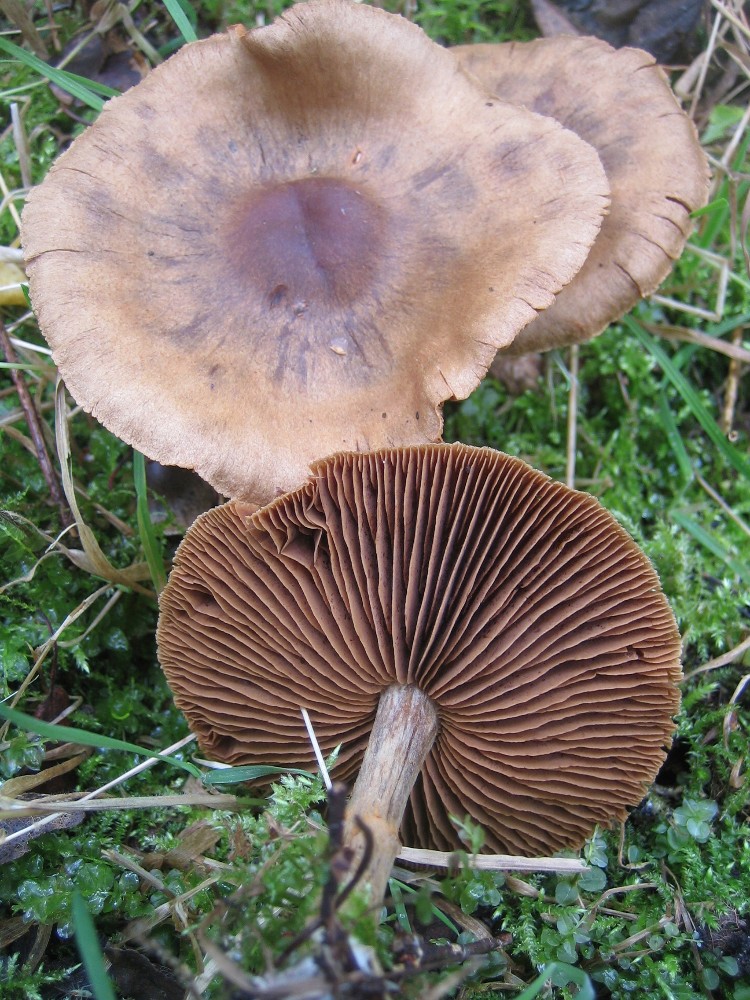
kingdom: Fungi
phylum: Basidiomycota
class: Agaricomycetes
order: Agaricales
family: Cortinariaceae
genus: Cortinarius
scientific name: Cortinarius
